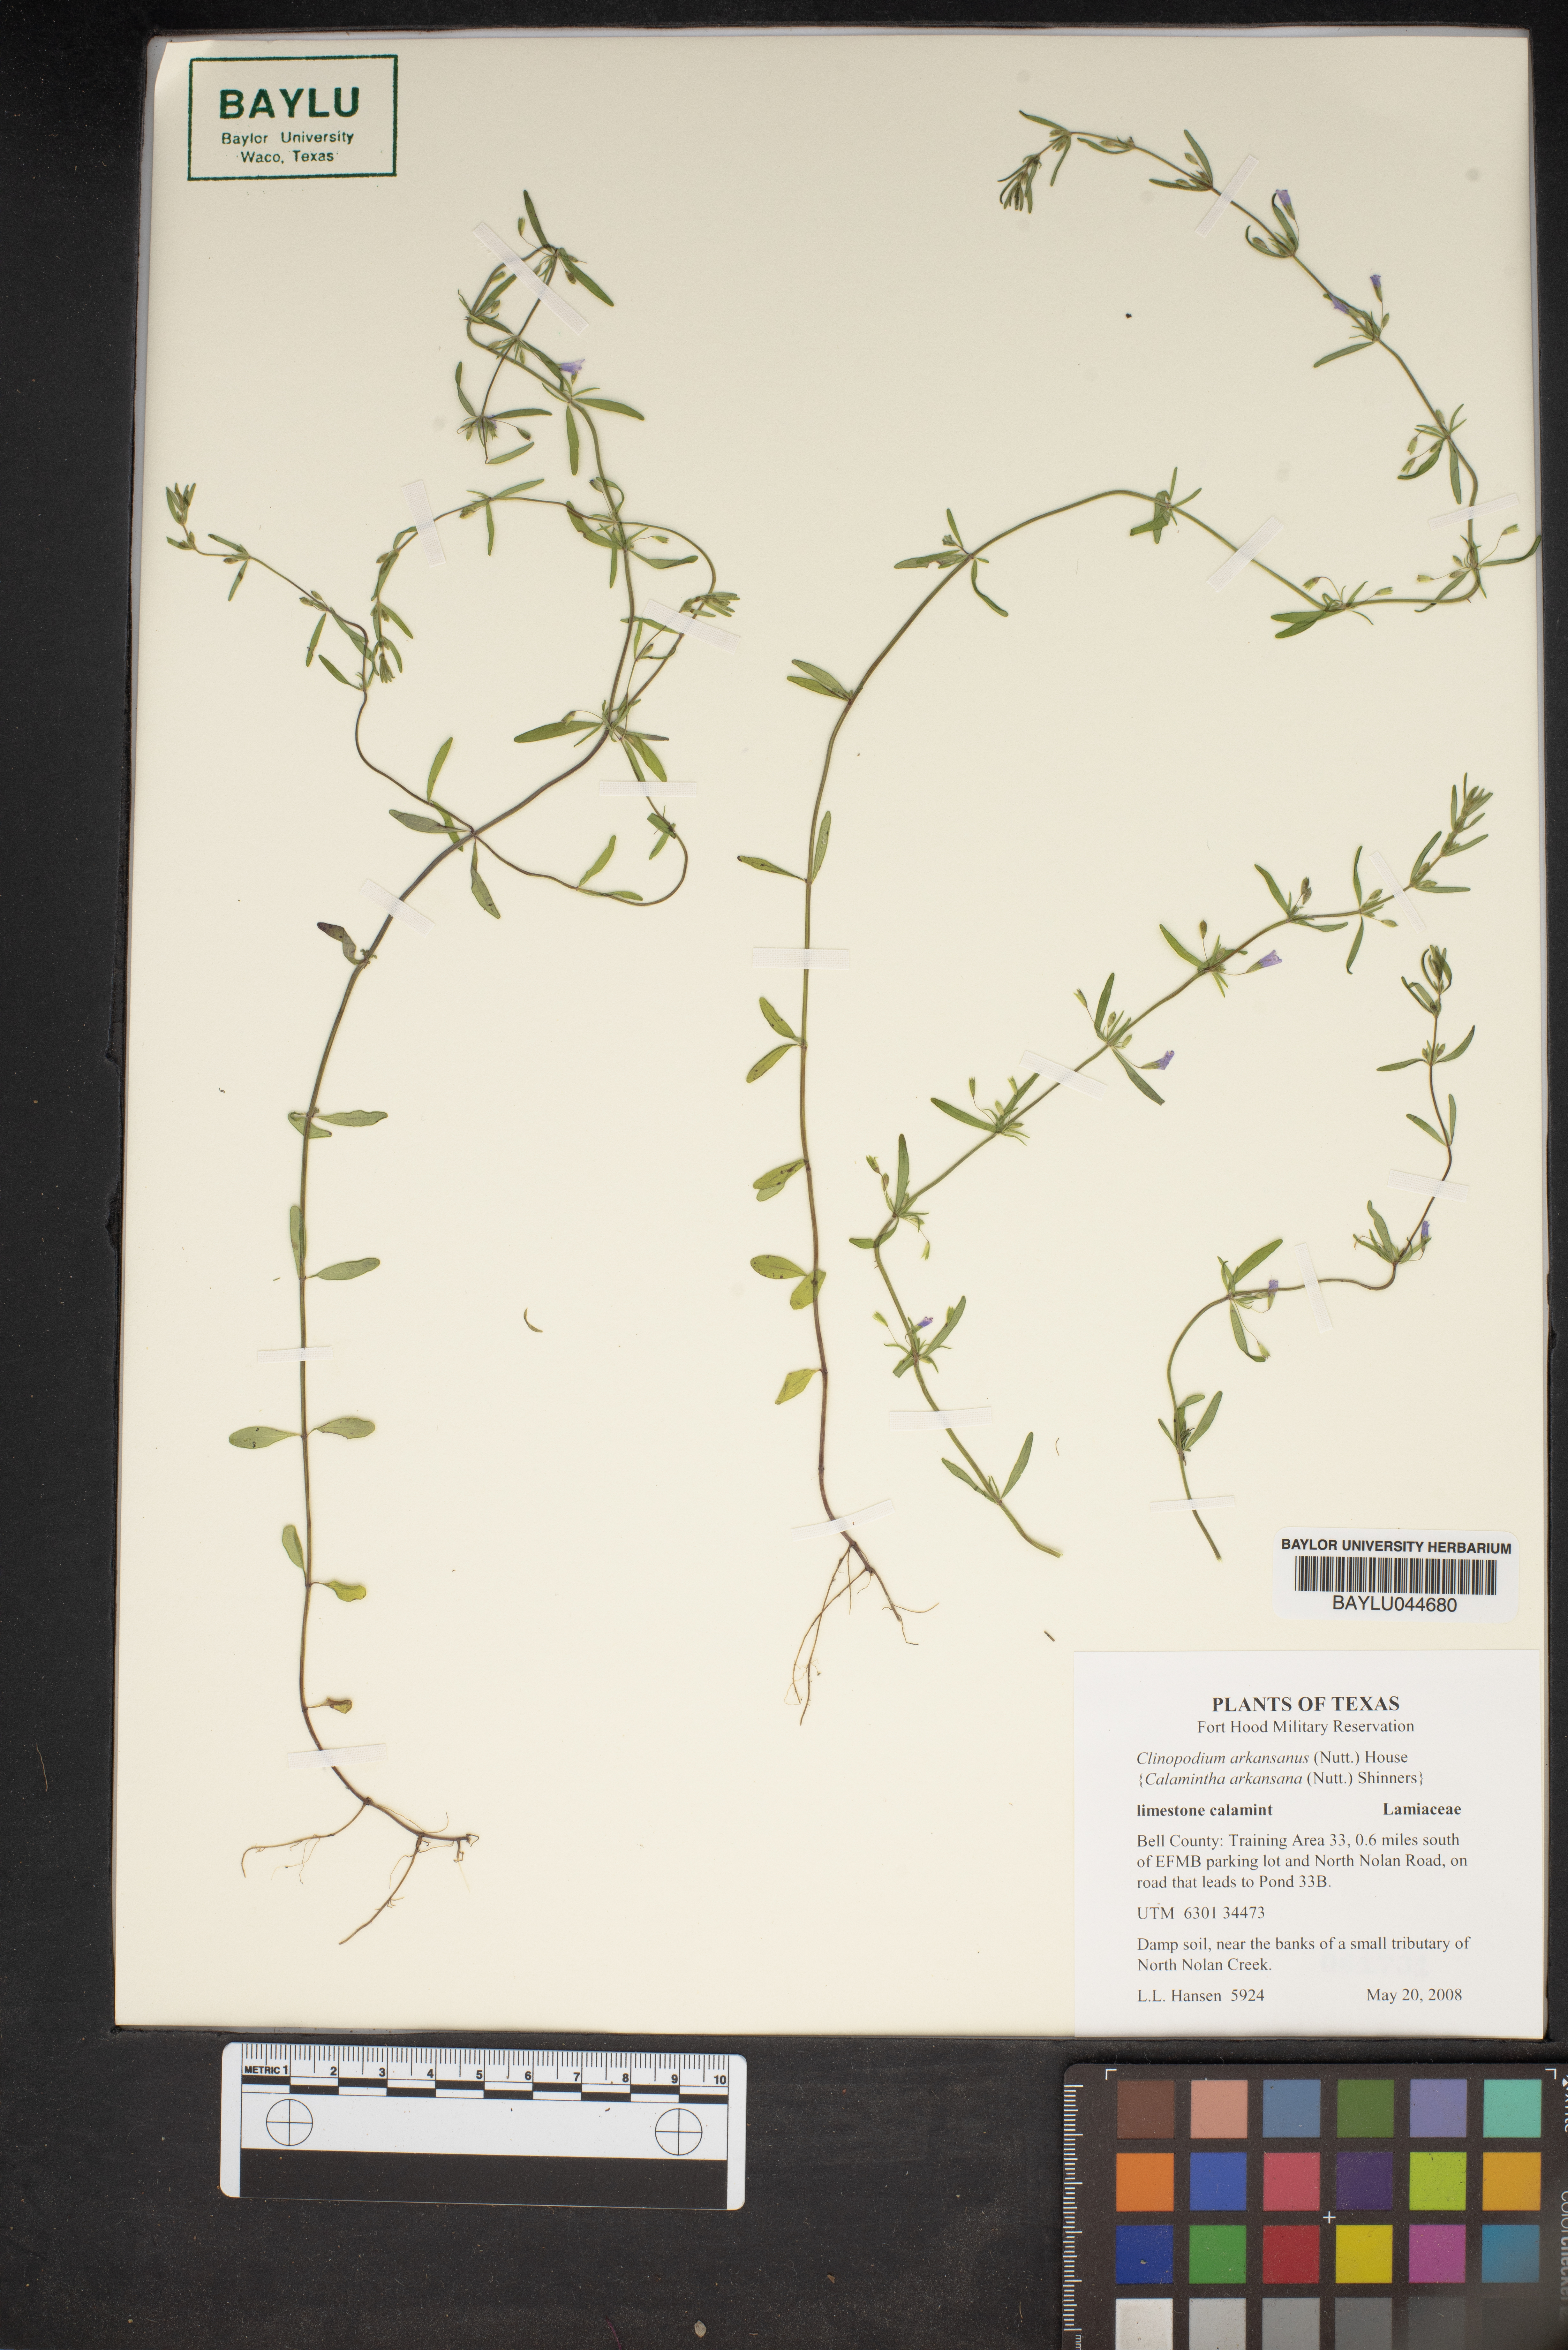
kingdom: Plantae
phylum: Tracheophyta
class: Magnoliopsida
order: Lamiales
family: Lamiaceae
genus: Clinopodium
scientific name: Clinopodium arkansanum
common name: Limestone calamint
